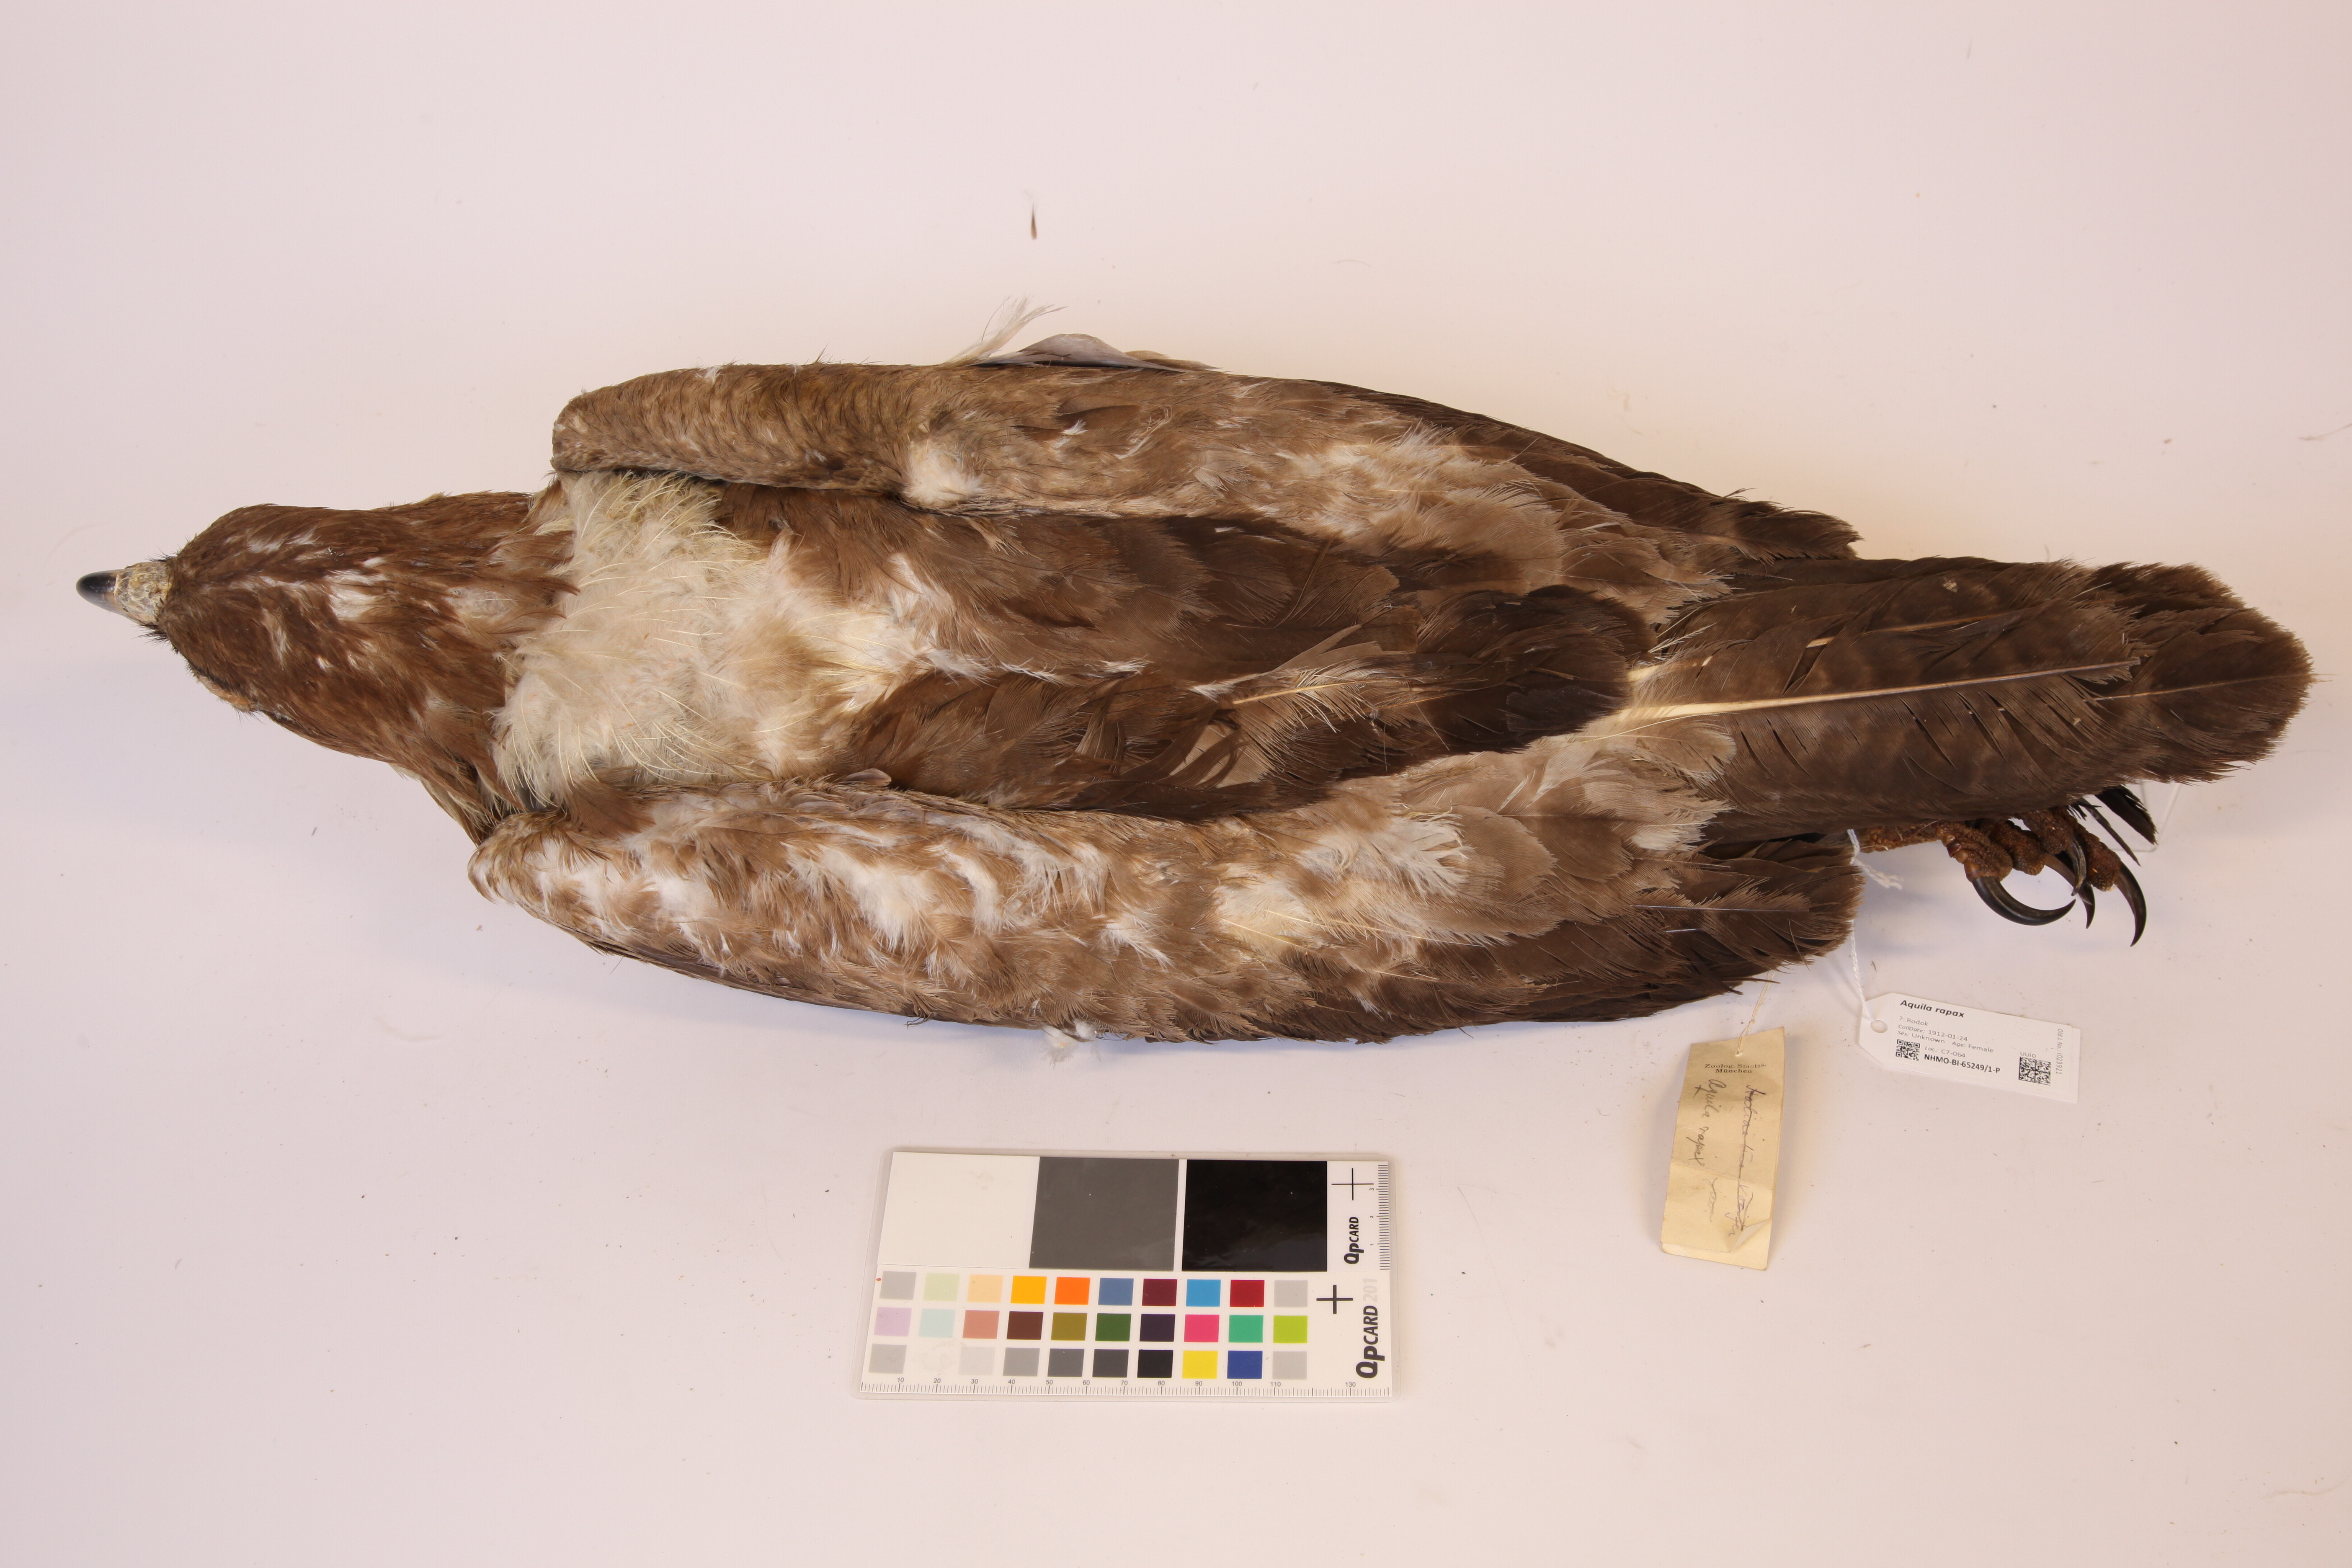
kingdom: Animalia
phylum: Chordata
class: Aves
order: Accipitriformes
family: Accipitridae
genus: Aquila
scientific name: Aquila rapax
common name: Tawny eagle
